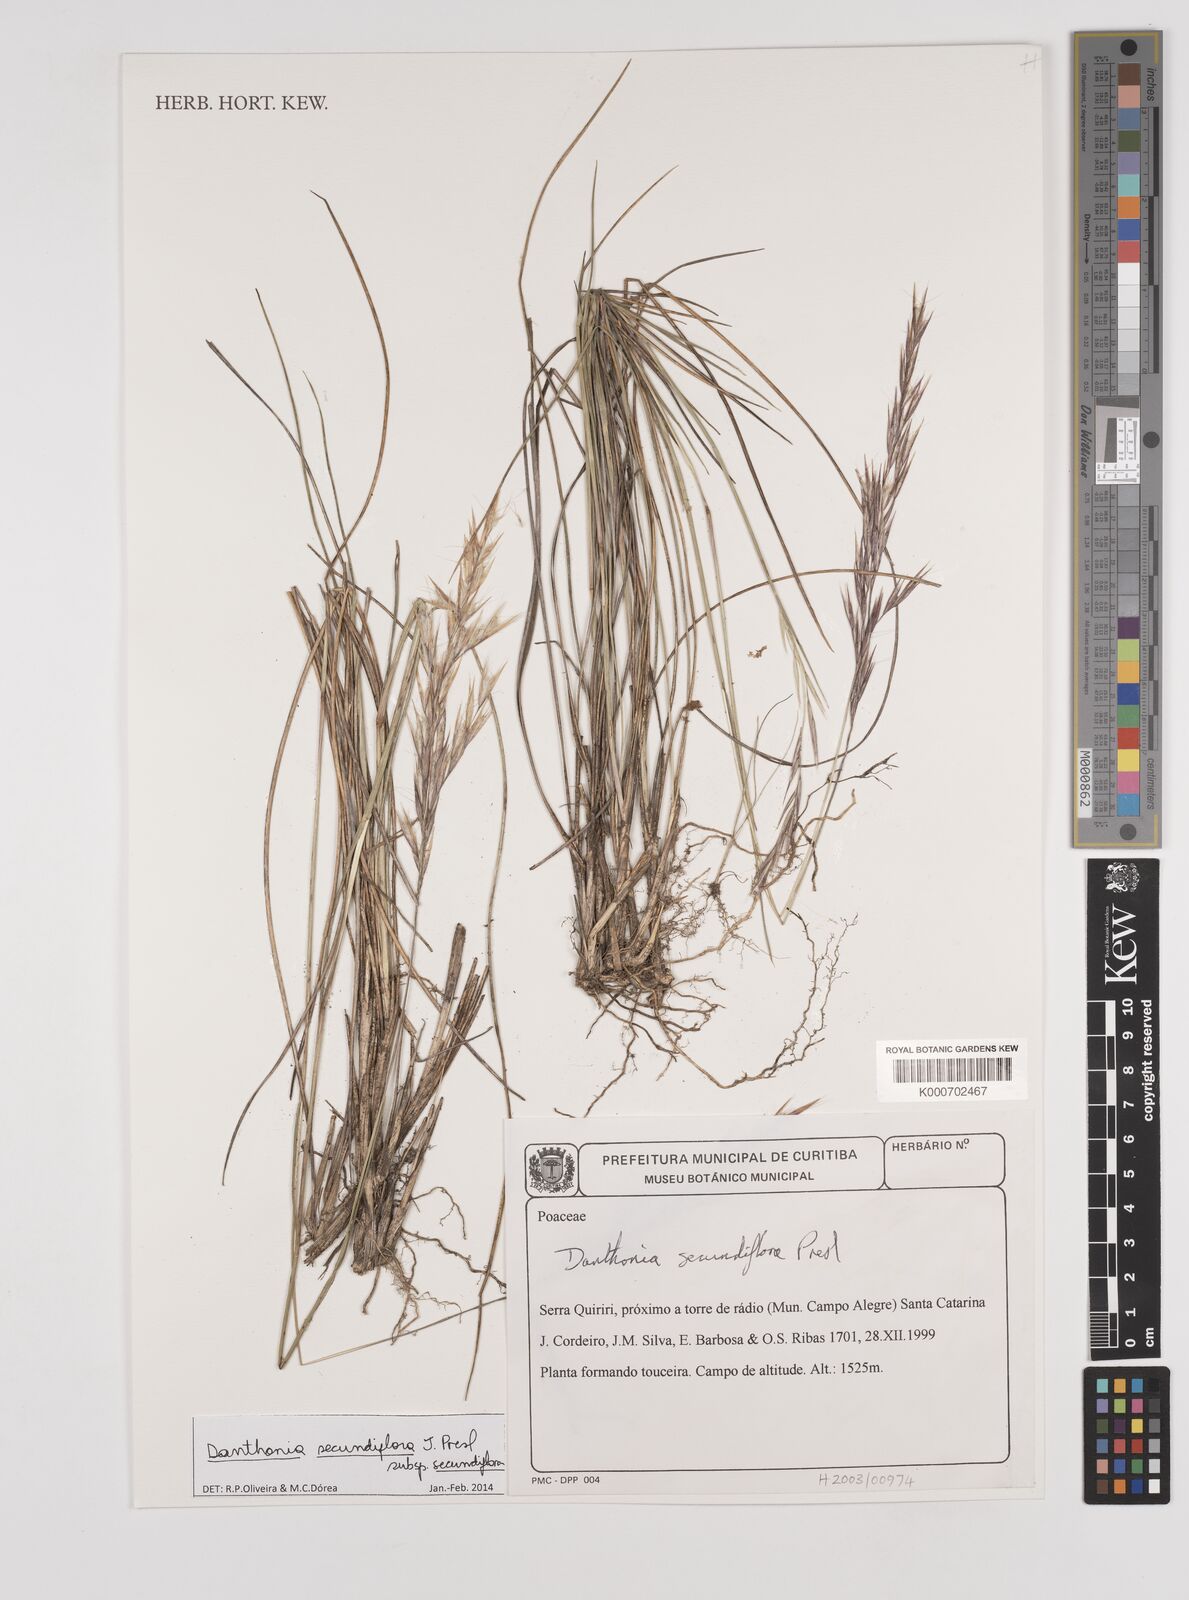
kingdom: Plantae
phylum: Tracheophyta
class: Liliopsida
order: Poales
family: Poaceae
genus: Danthonia
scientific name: Danthonia secundiflora
